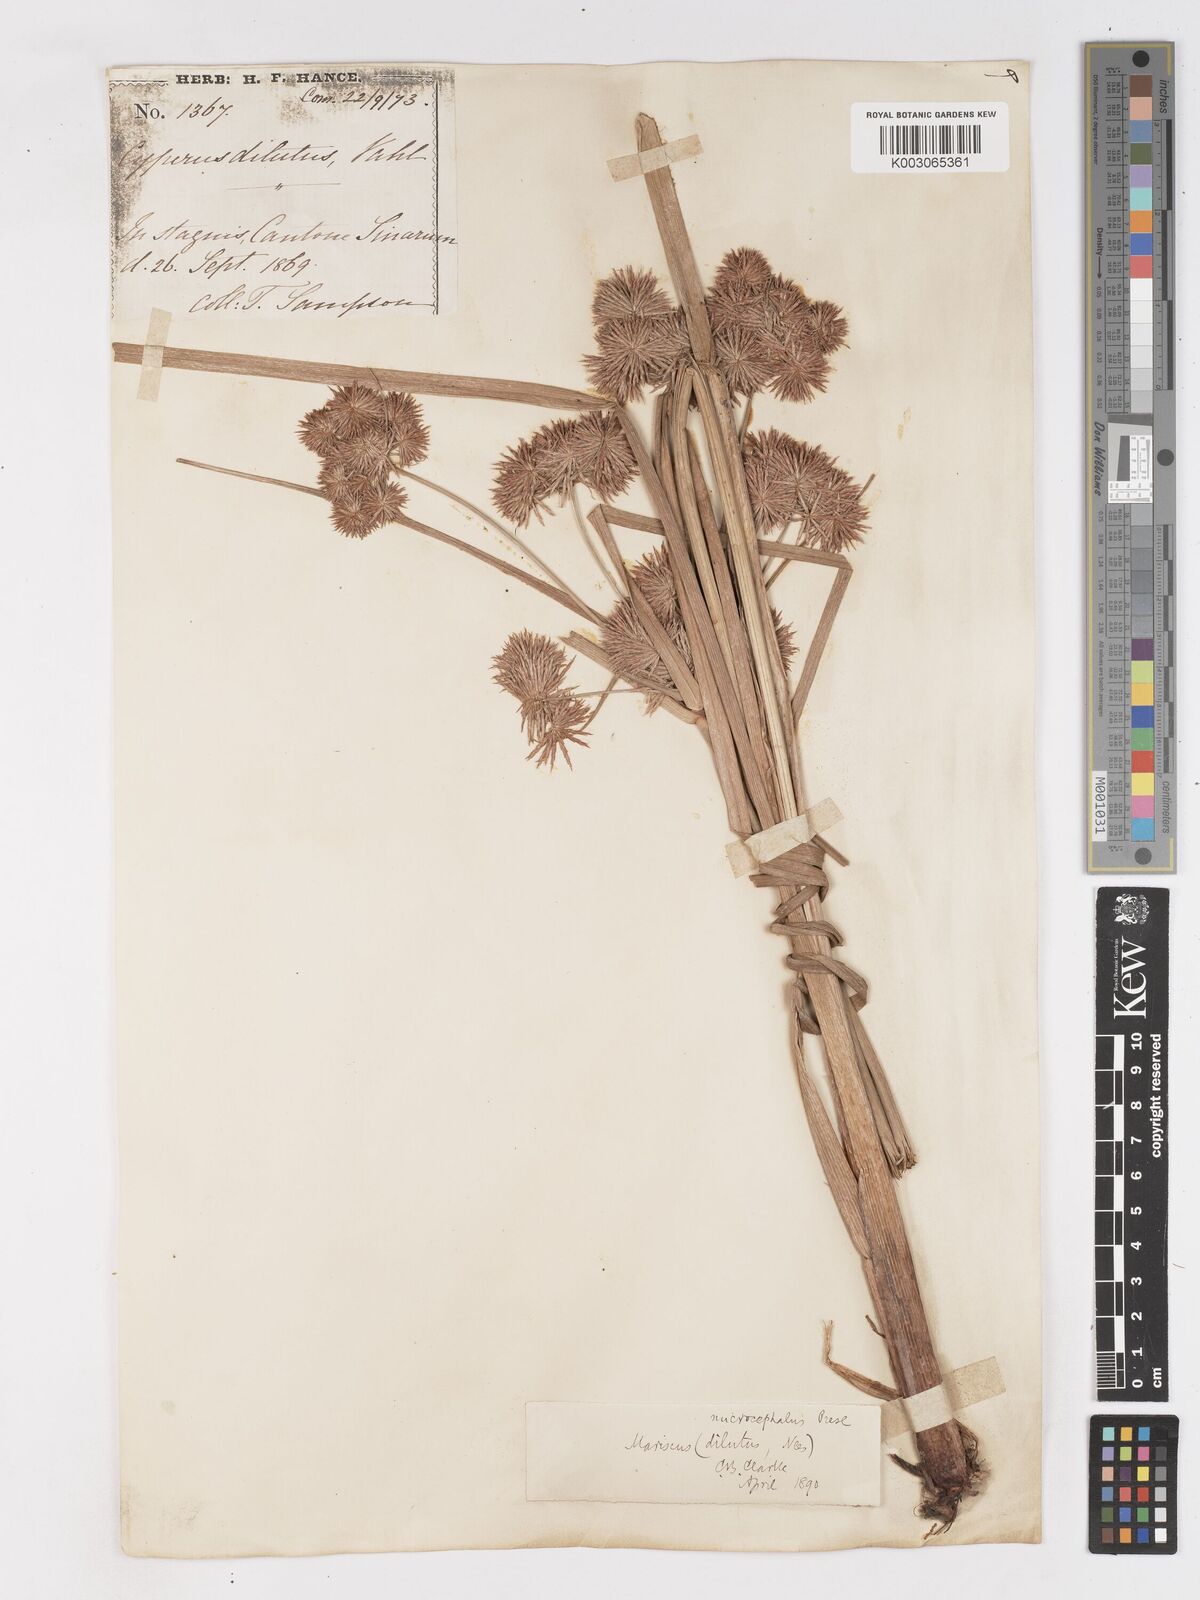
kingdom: Plantae
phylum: Tracheophyta
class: Liliopsida
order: Poales
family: Cyperaceae
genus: Cyperus
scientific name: Cyperus compactus
